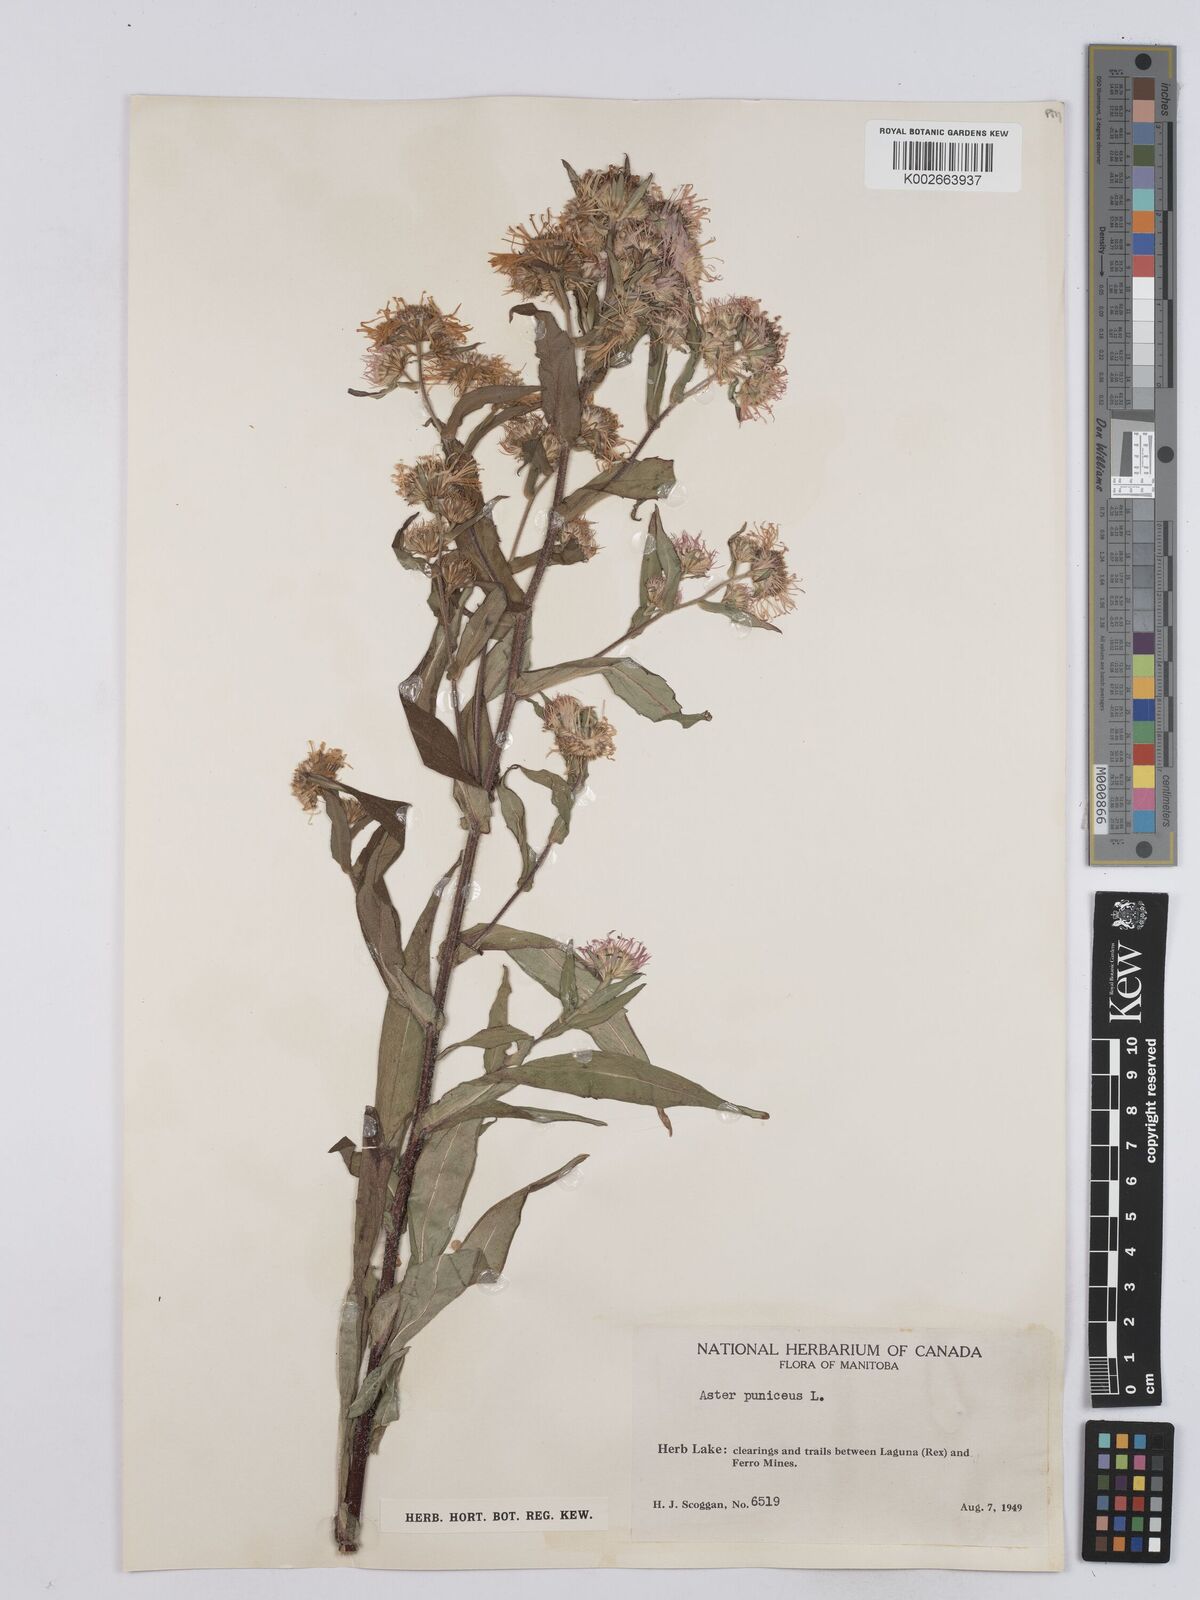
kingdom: Plantae
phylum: Tracheophyta
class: Magnoliopsida
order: Asterales
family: Asteraceae
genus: Symphyotrichum
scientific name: Symphyotrichum puniceum
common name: Bog aster
